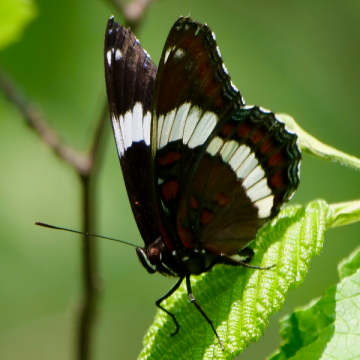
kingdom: Animalia
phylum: Arthropoda
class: Insecta
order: Lepidoptera
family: Nymphalidae
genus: Limenitis
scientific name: Limenitis arthemis
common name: Red-spotted Admiral
